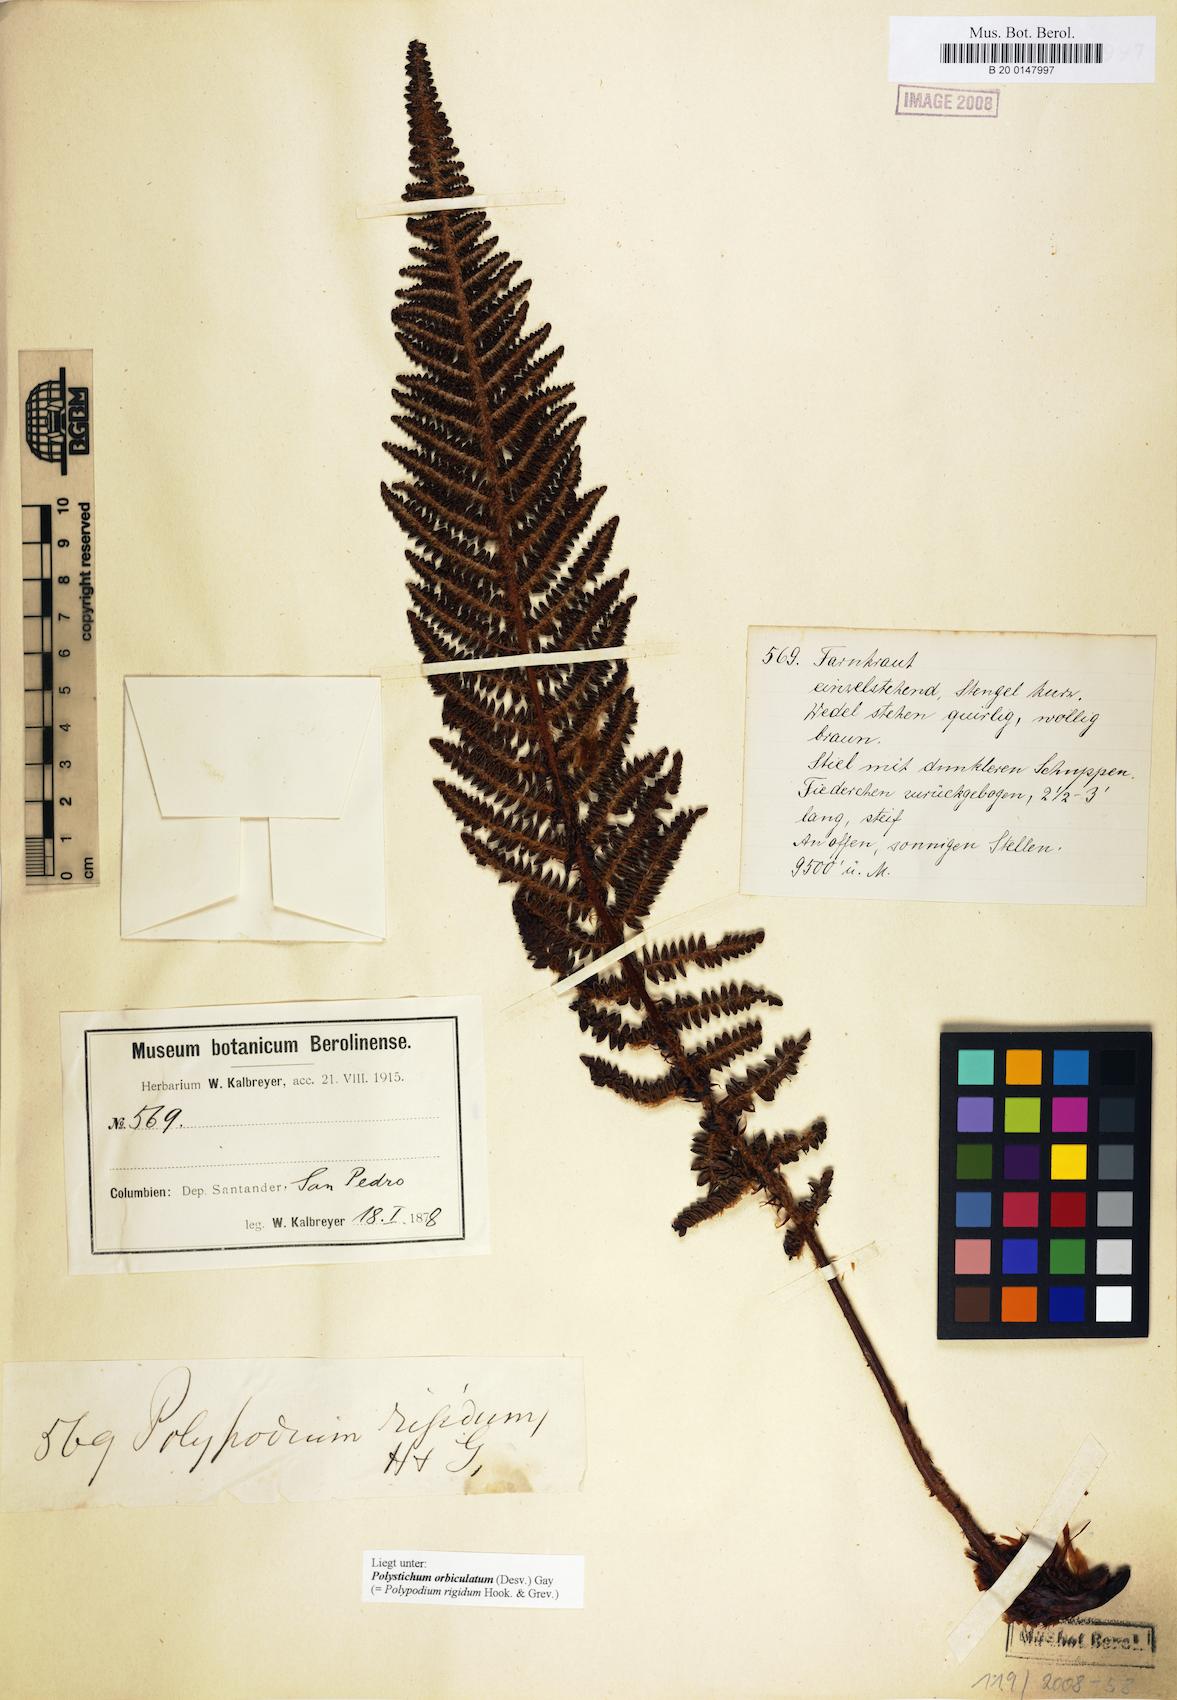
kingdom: Plantae
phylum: Tracheophyta
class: Polypodiopsida
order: Polypodiales
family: Dryopteridaceae
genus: Polystichum
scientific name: Polystichum orbiculatum
